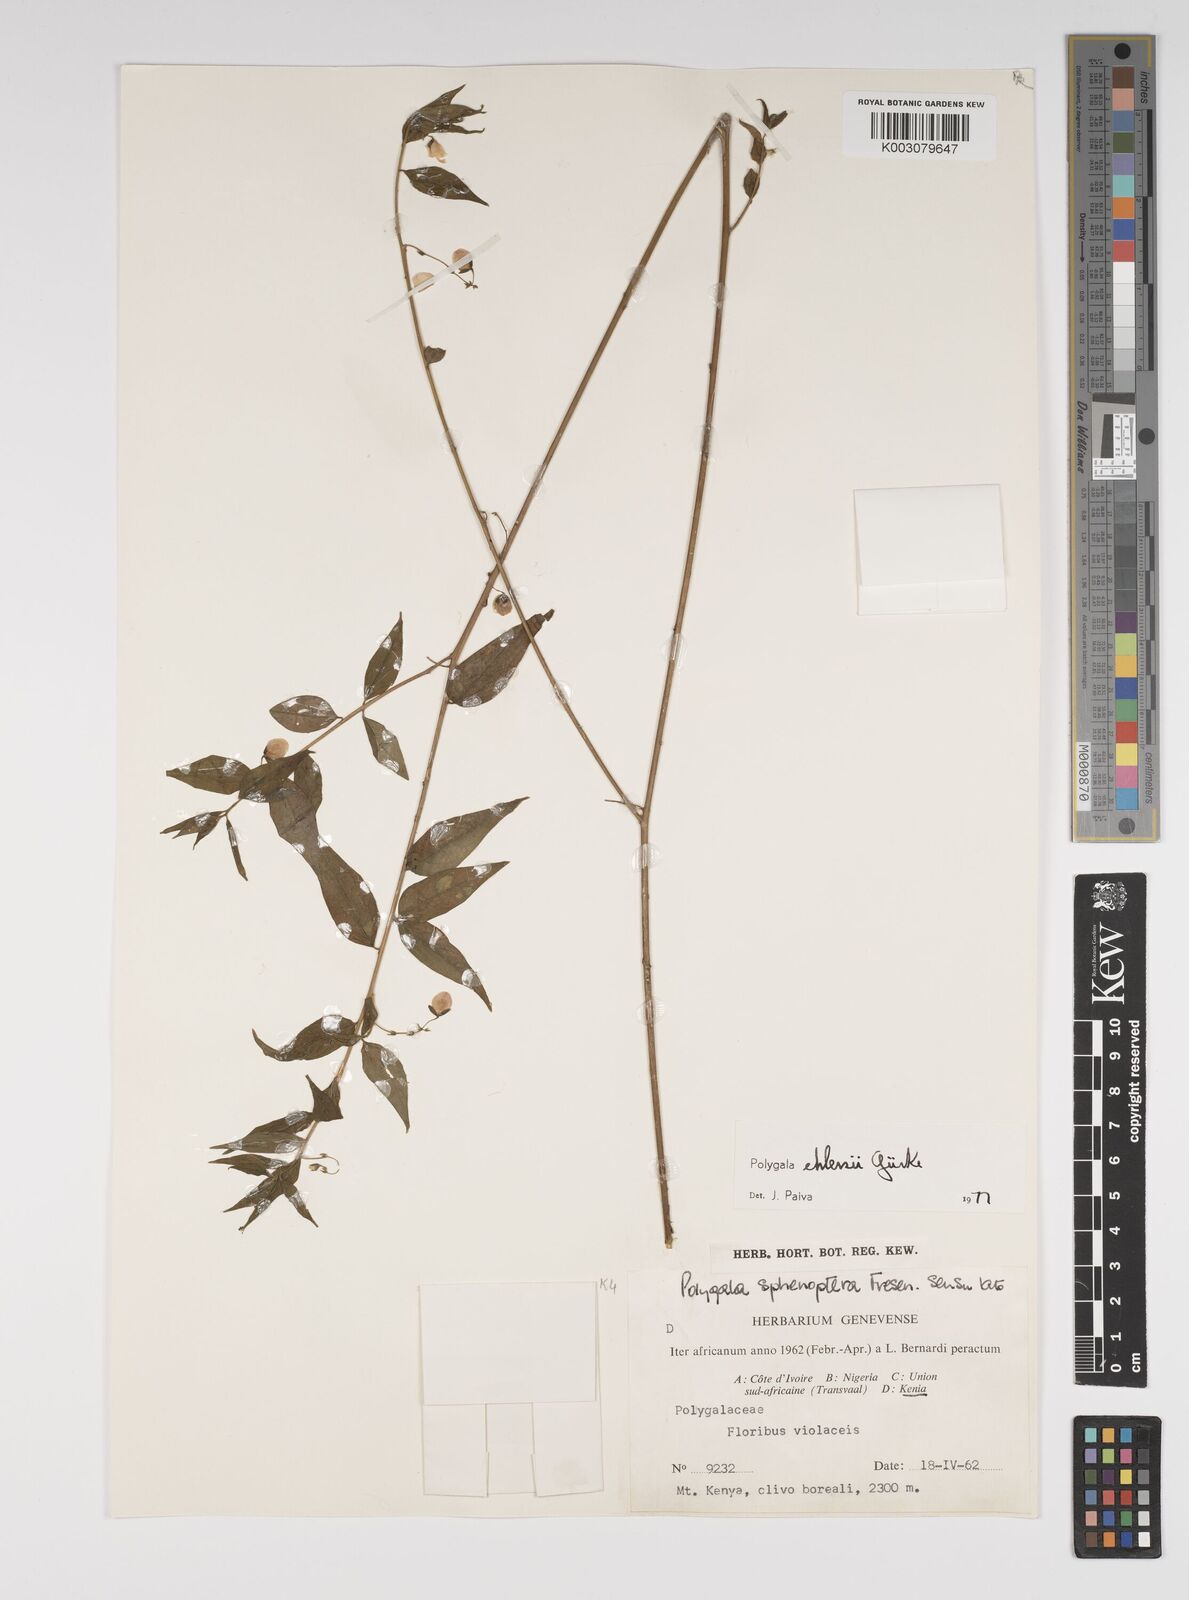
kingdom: Plantae
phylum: Tracheophyta
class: Magnoliopsida
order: Fabales
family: Polygalaceae
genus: Polygala
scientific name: Polygala ehlersii
